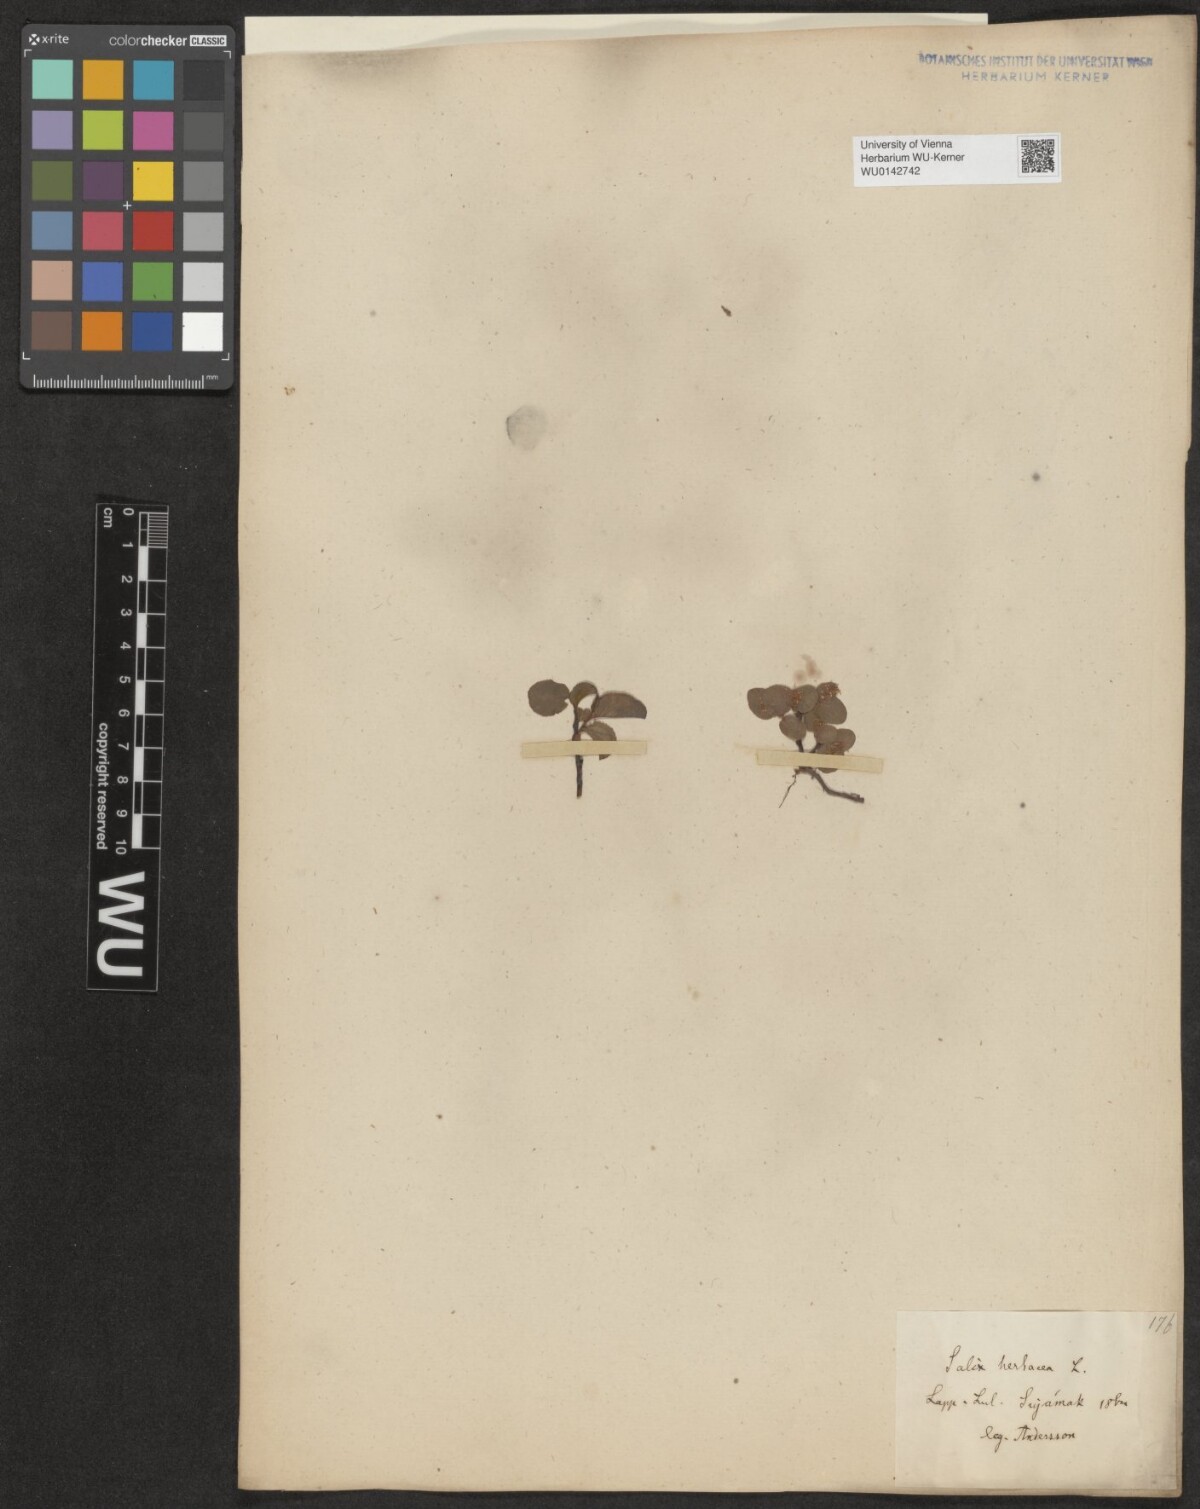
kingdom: Plantae
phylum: Tracheophyta
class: Magnoliopsida
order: Malpighiales
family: Salicaceae
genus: Salix
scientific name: Salix herbacea
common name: Dwarf willow
